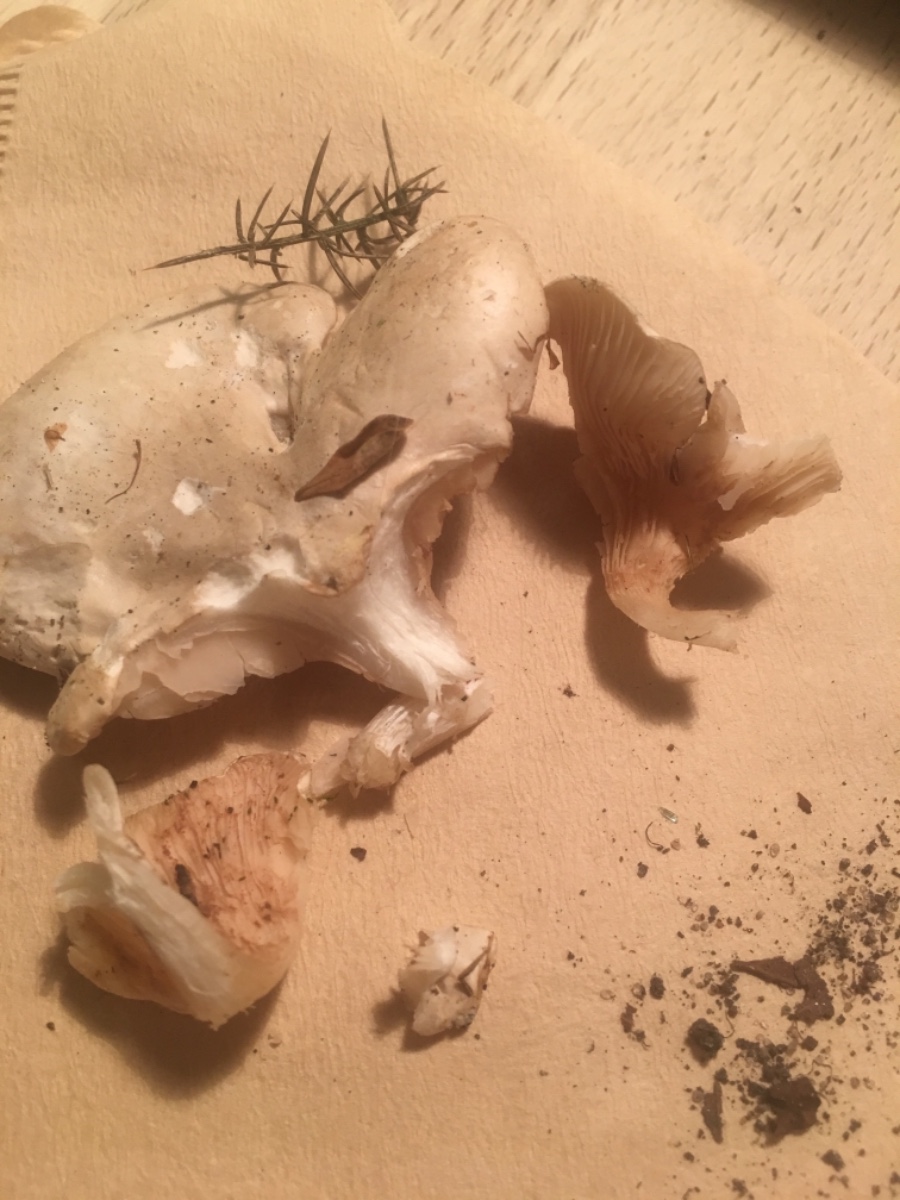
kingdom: Fungi
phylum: Basidiomycota
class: Agaricomycetes
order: Agaricales
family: Entolomataceae
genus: Clitopilus
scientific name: Clitopilus prunulus
